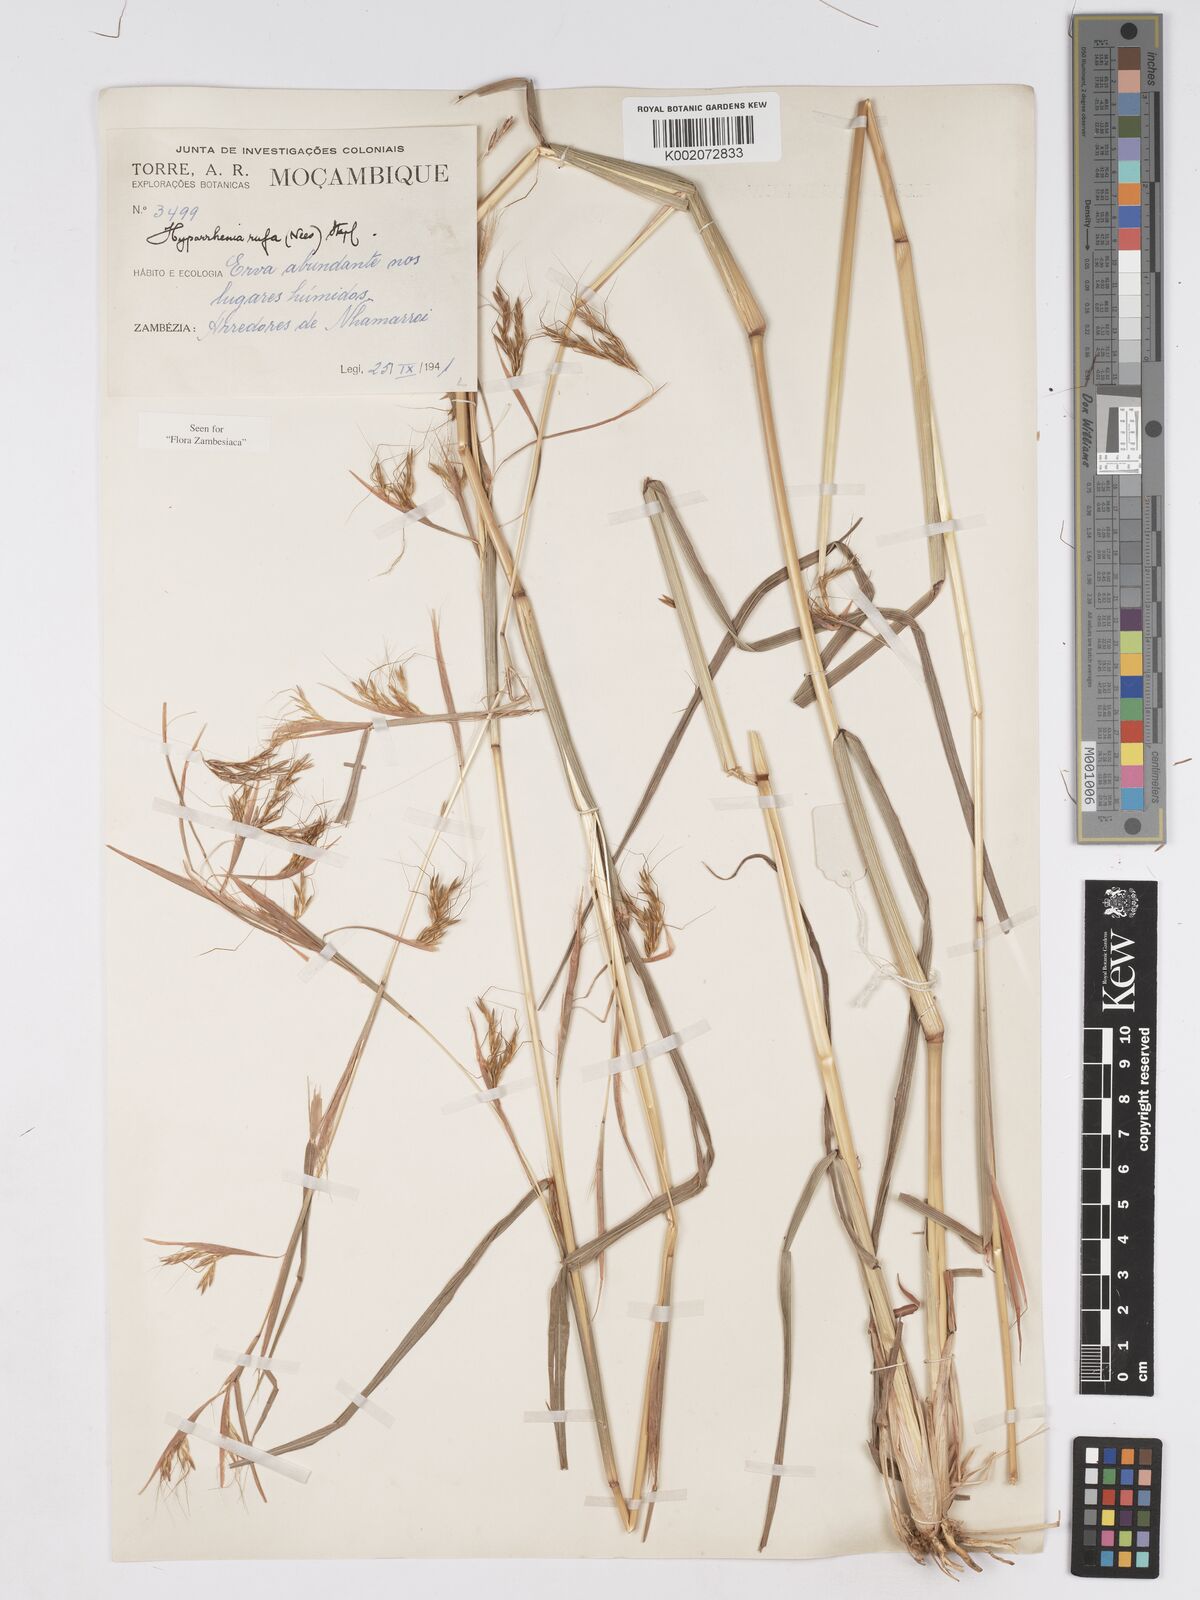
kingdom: Plantae
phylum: Tracheophyta
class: Liliopsida
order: Poales
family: Poaceae
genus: Hyparrhenia
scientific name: Hyparrhenia rufa
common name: Jaraguagrass
